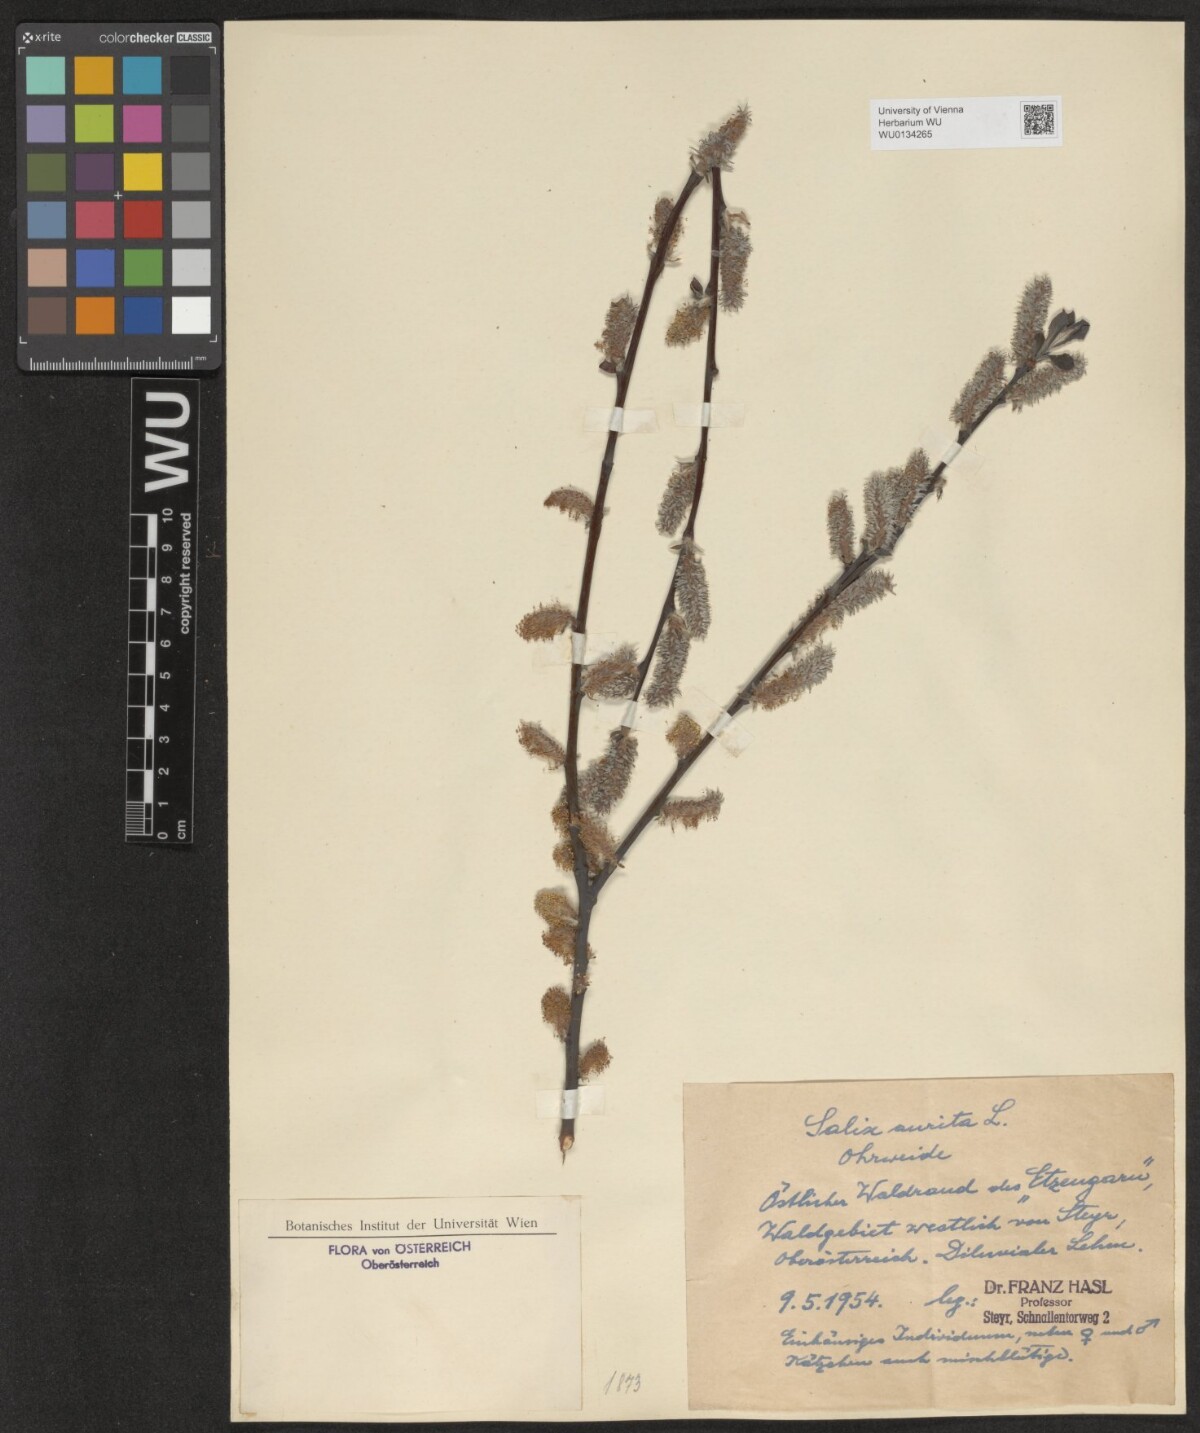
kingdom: Plantae
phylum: Tracheophyta
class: Magnoliopsida
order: Malpighiales
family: Salicaceae
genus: Salix
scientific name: Salix aurita
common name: Eared willow
